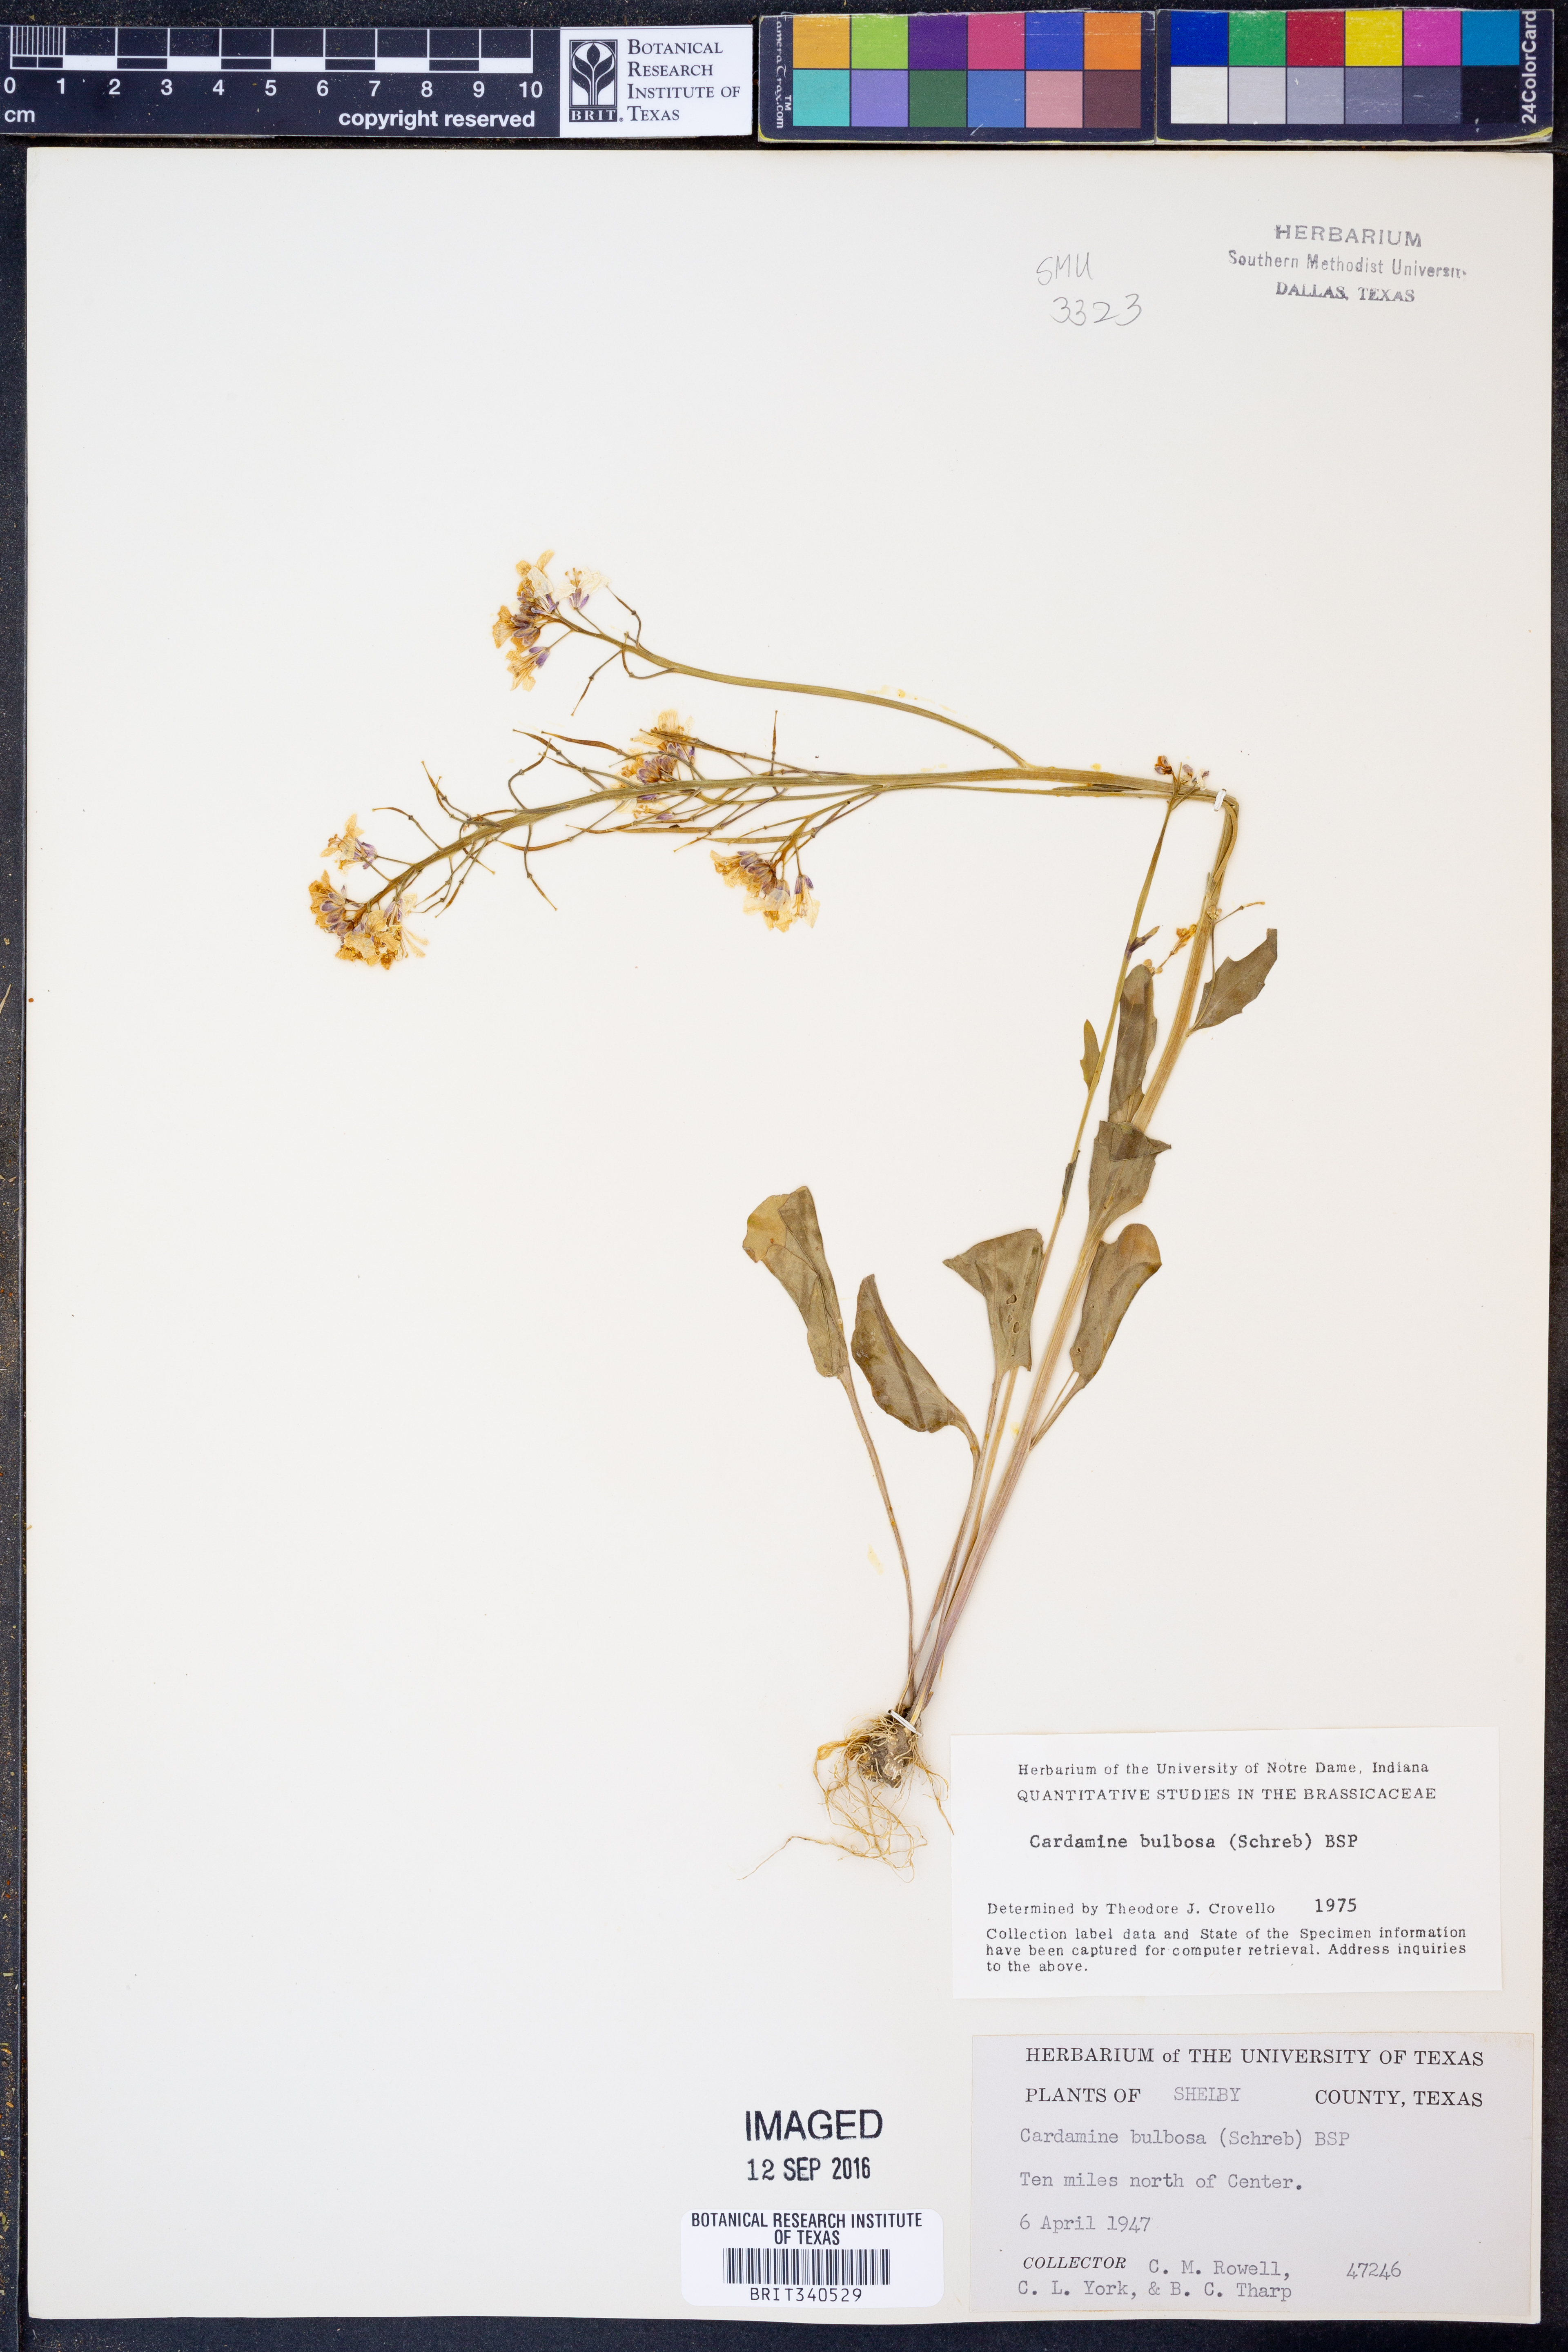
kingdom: Plantae
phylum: Tracheophyta
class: Magnoliopsida
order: Brassicales
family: Brassicaceae
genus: Cardamine
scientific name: Cardamine bulbosa
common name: Spring cress
